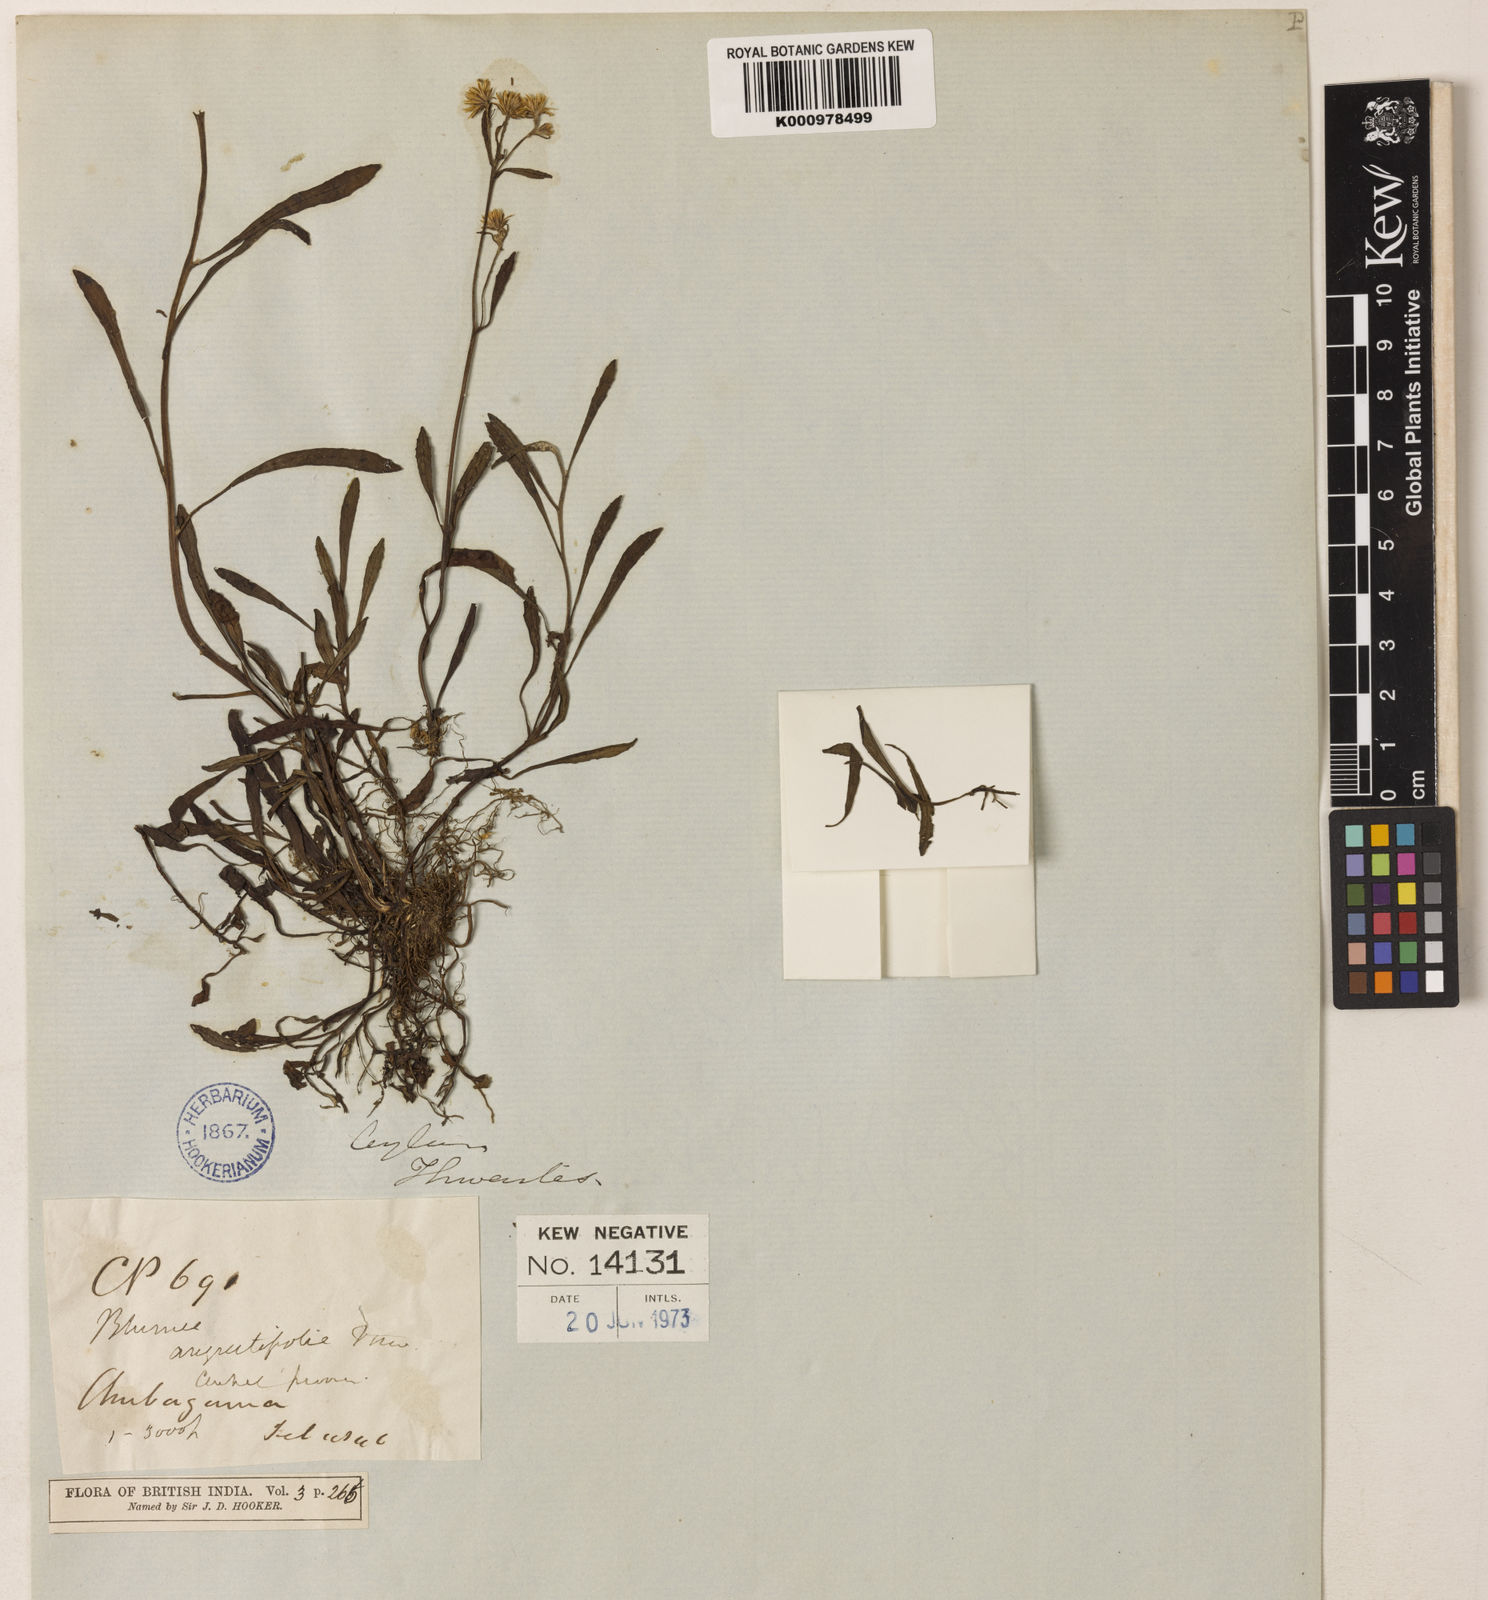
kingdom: Plantae
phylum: Tracheophyta
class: Magnoliopsida
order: Asterales
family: Asteraceae
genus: Blumea
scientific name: Blumea angustifolia
